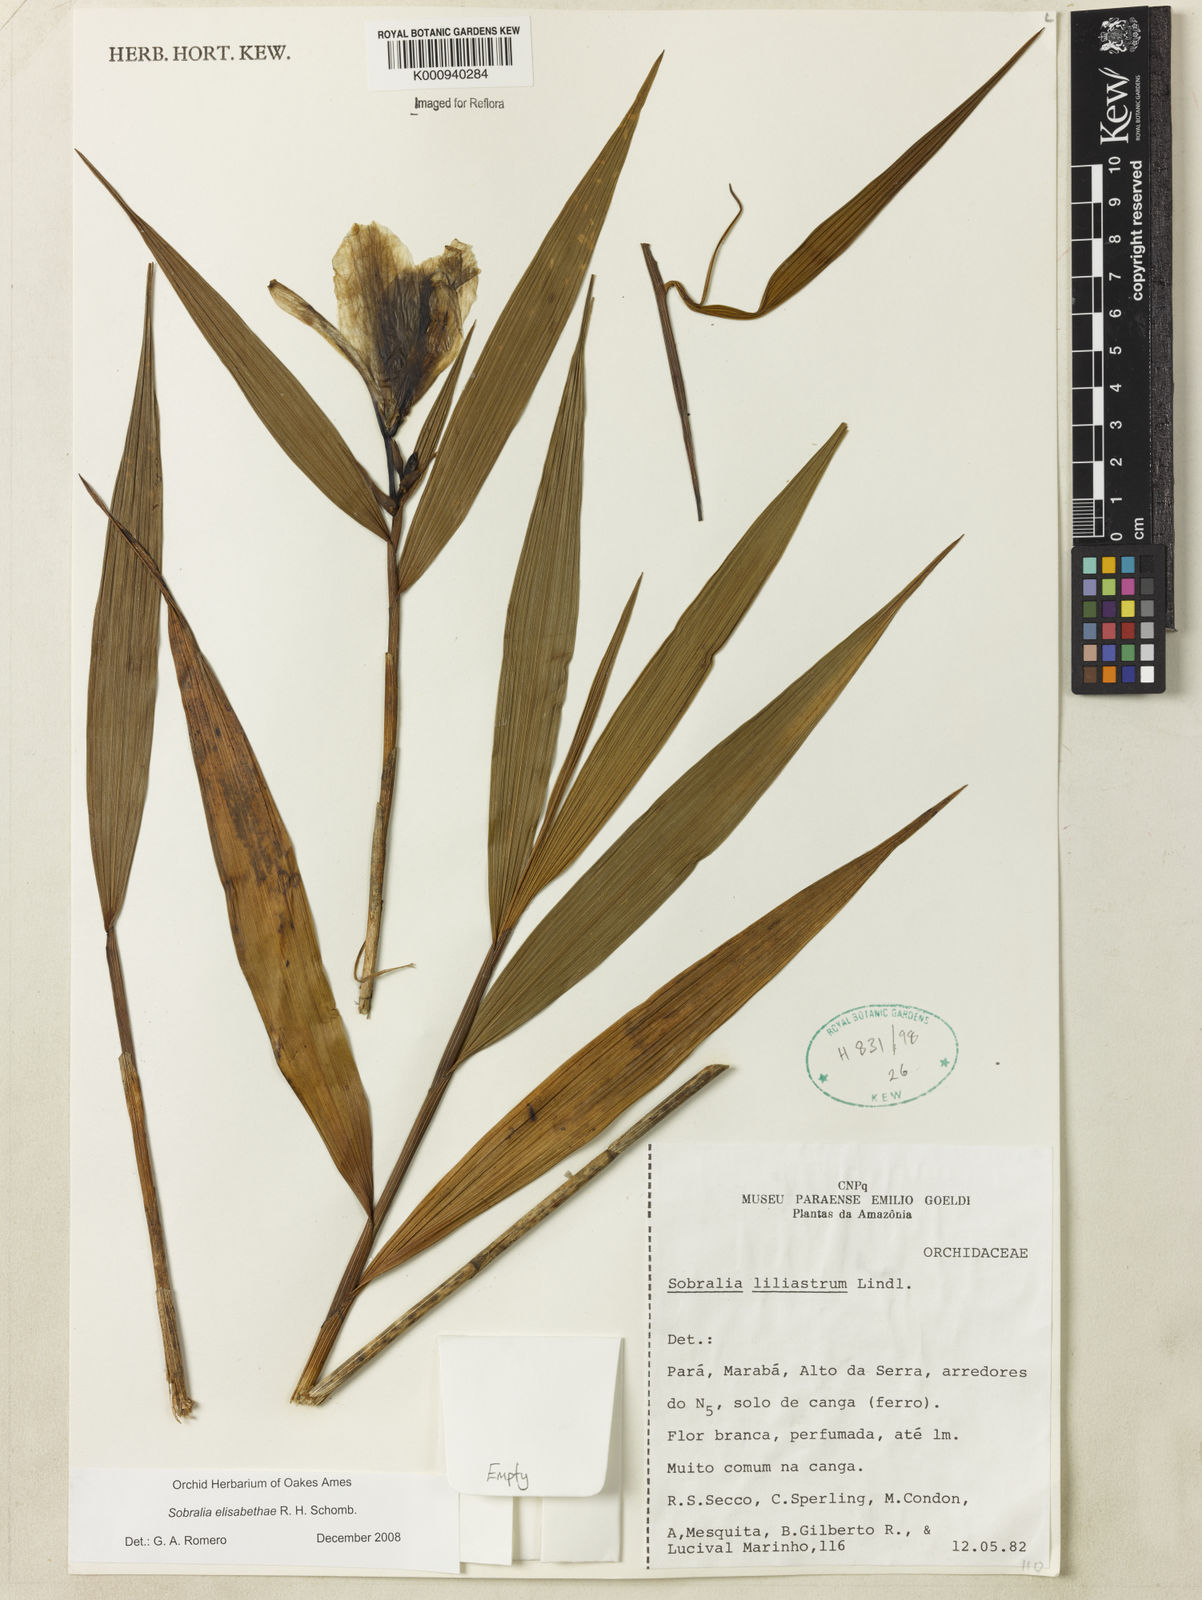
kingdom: Plantae
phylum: Tracheophyta
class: Liliopsida
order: Asparagales
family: Orchidaceae
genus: Sobralia
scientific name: Sobralia elisabethae
